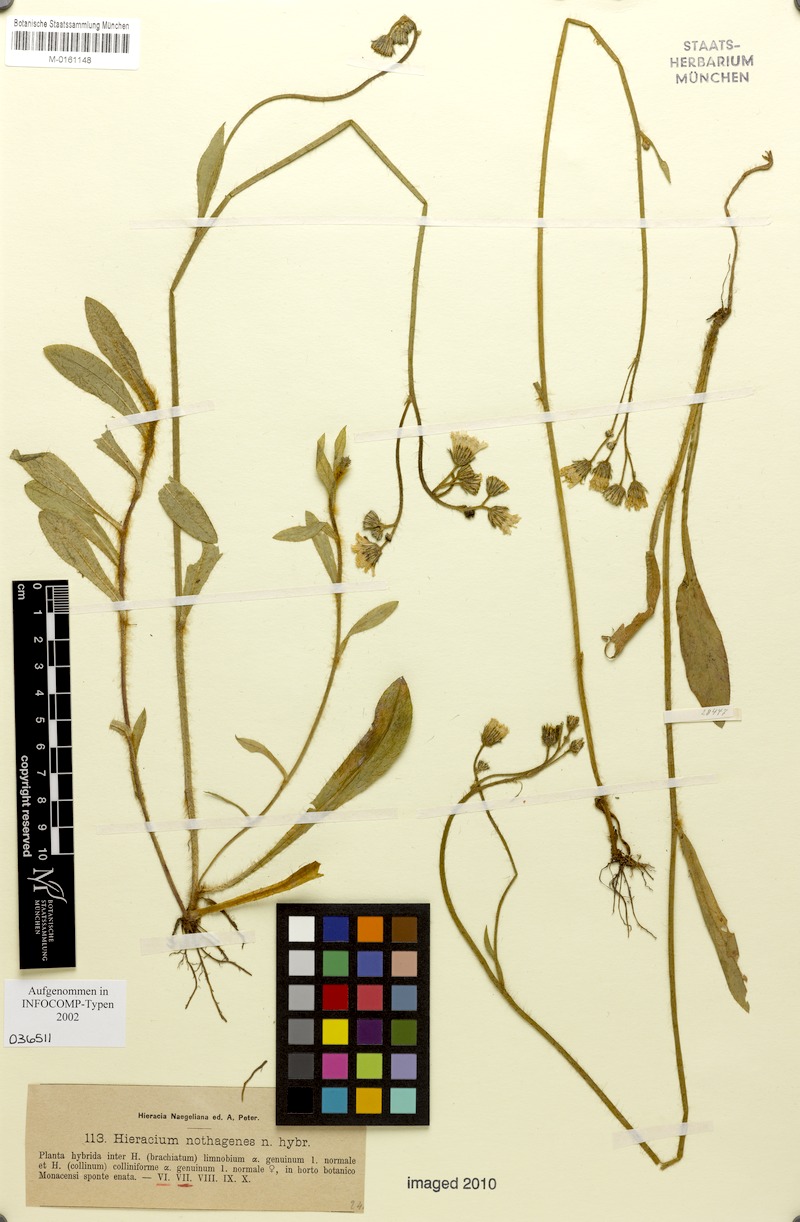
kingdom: Plantae
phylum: Tracheophyta
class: Magnoliopsida
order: Asterales
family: Asteraceae
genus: Hieracium
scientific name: Hieracium nothagenes
